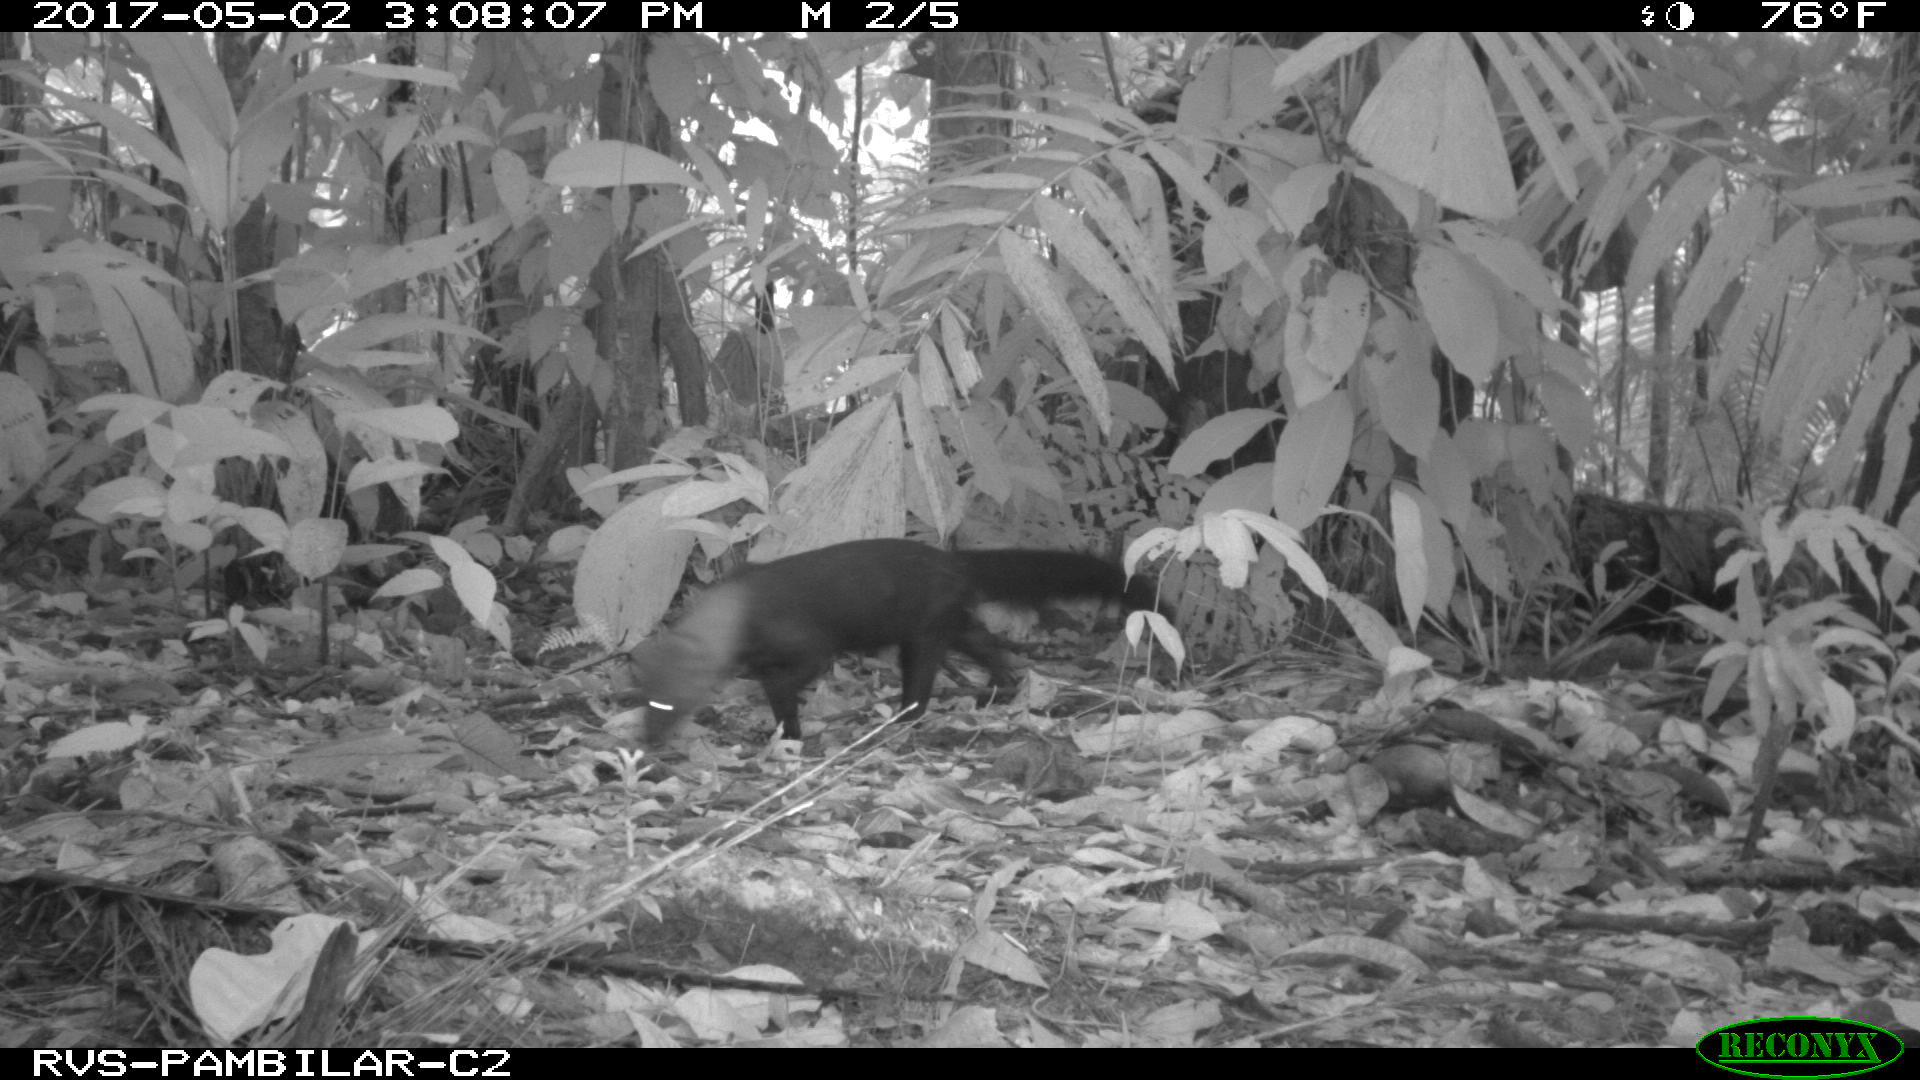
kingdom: Animalia
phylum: Chordata
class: Mammalia
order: Carnivora
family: Mustelidae
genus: Eira
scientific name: Eira barbara
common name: Tayra
